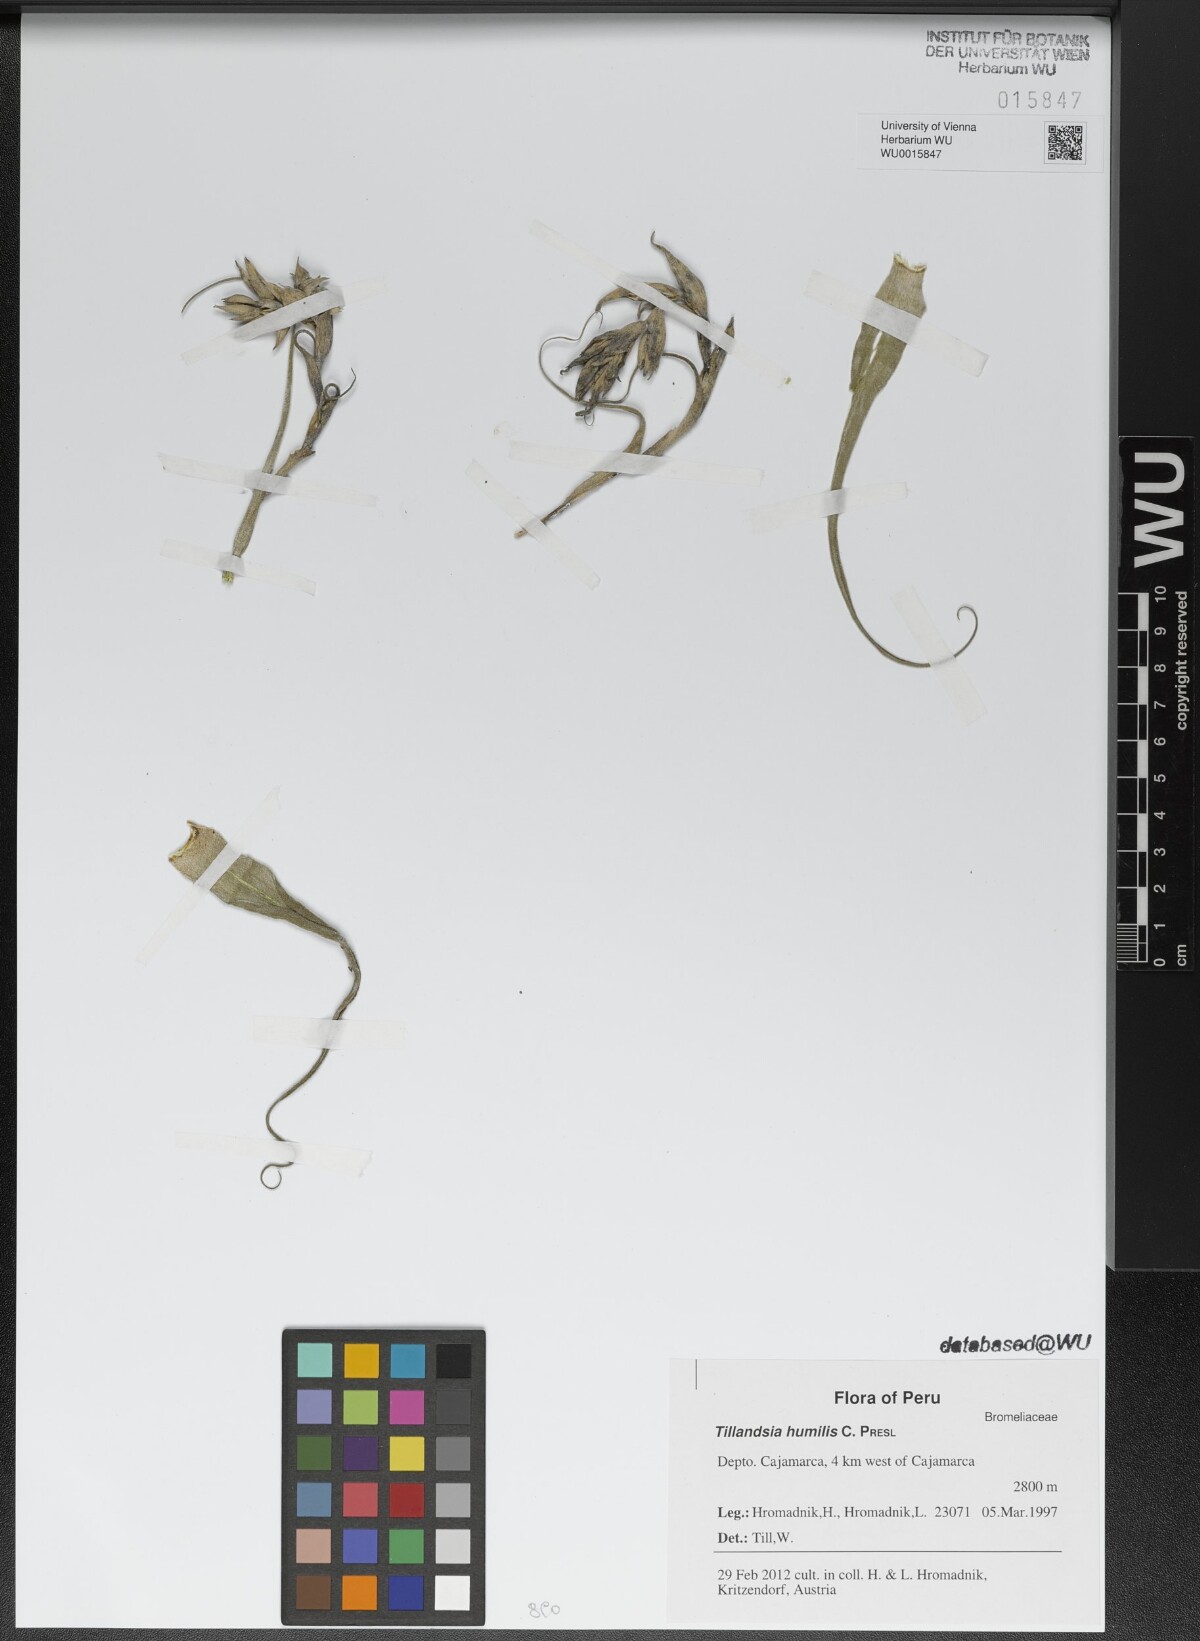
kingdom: Plantae
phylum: Tracheophyta
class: Liliopsida
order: Poales
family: Bromeliaceae
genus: Tillandsia
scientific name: Tillandsia humilis
